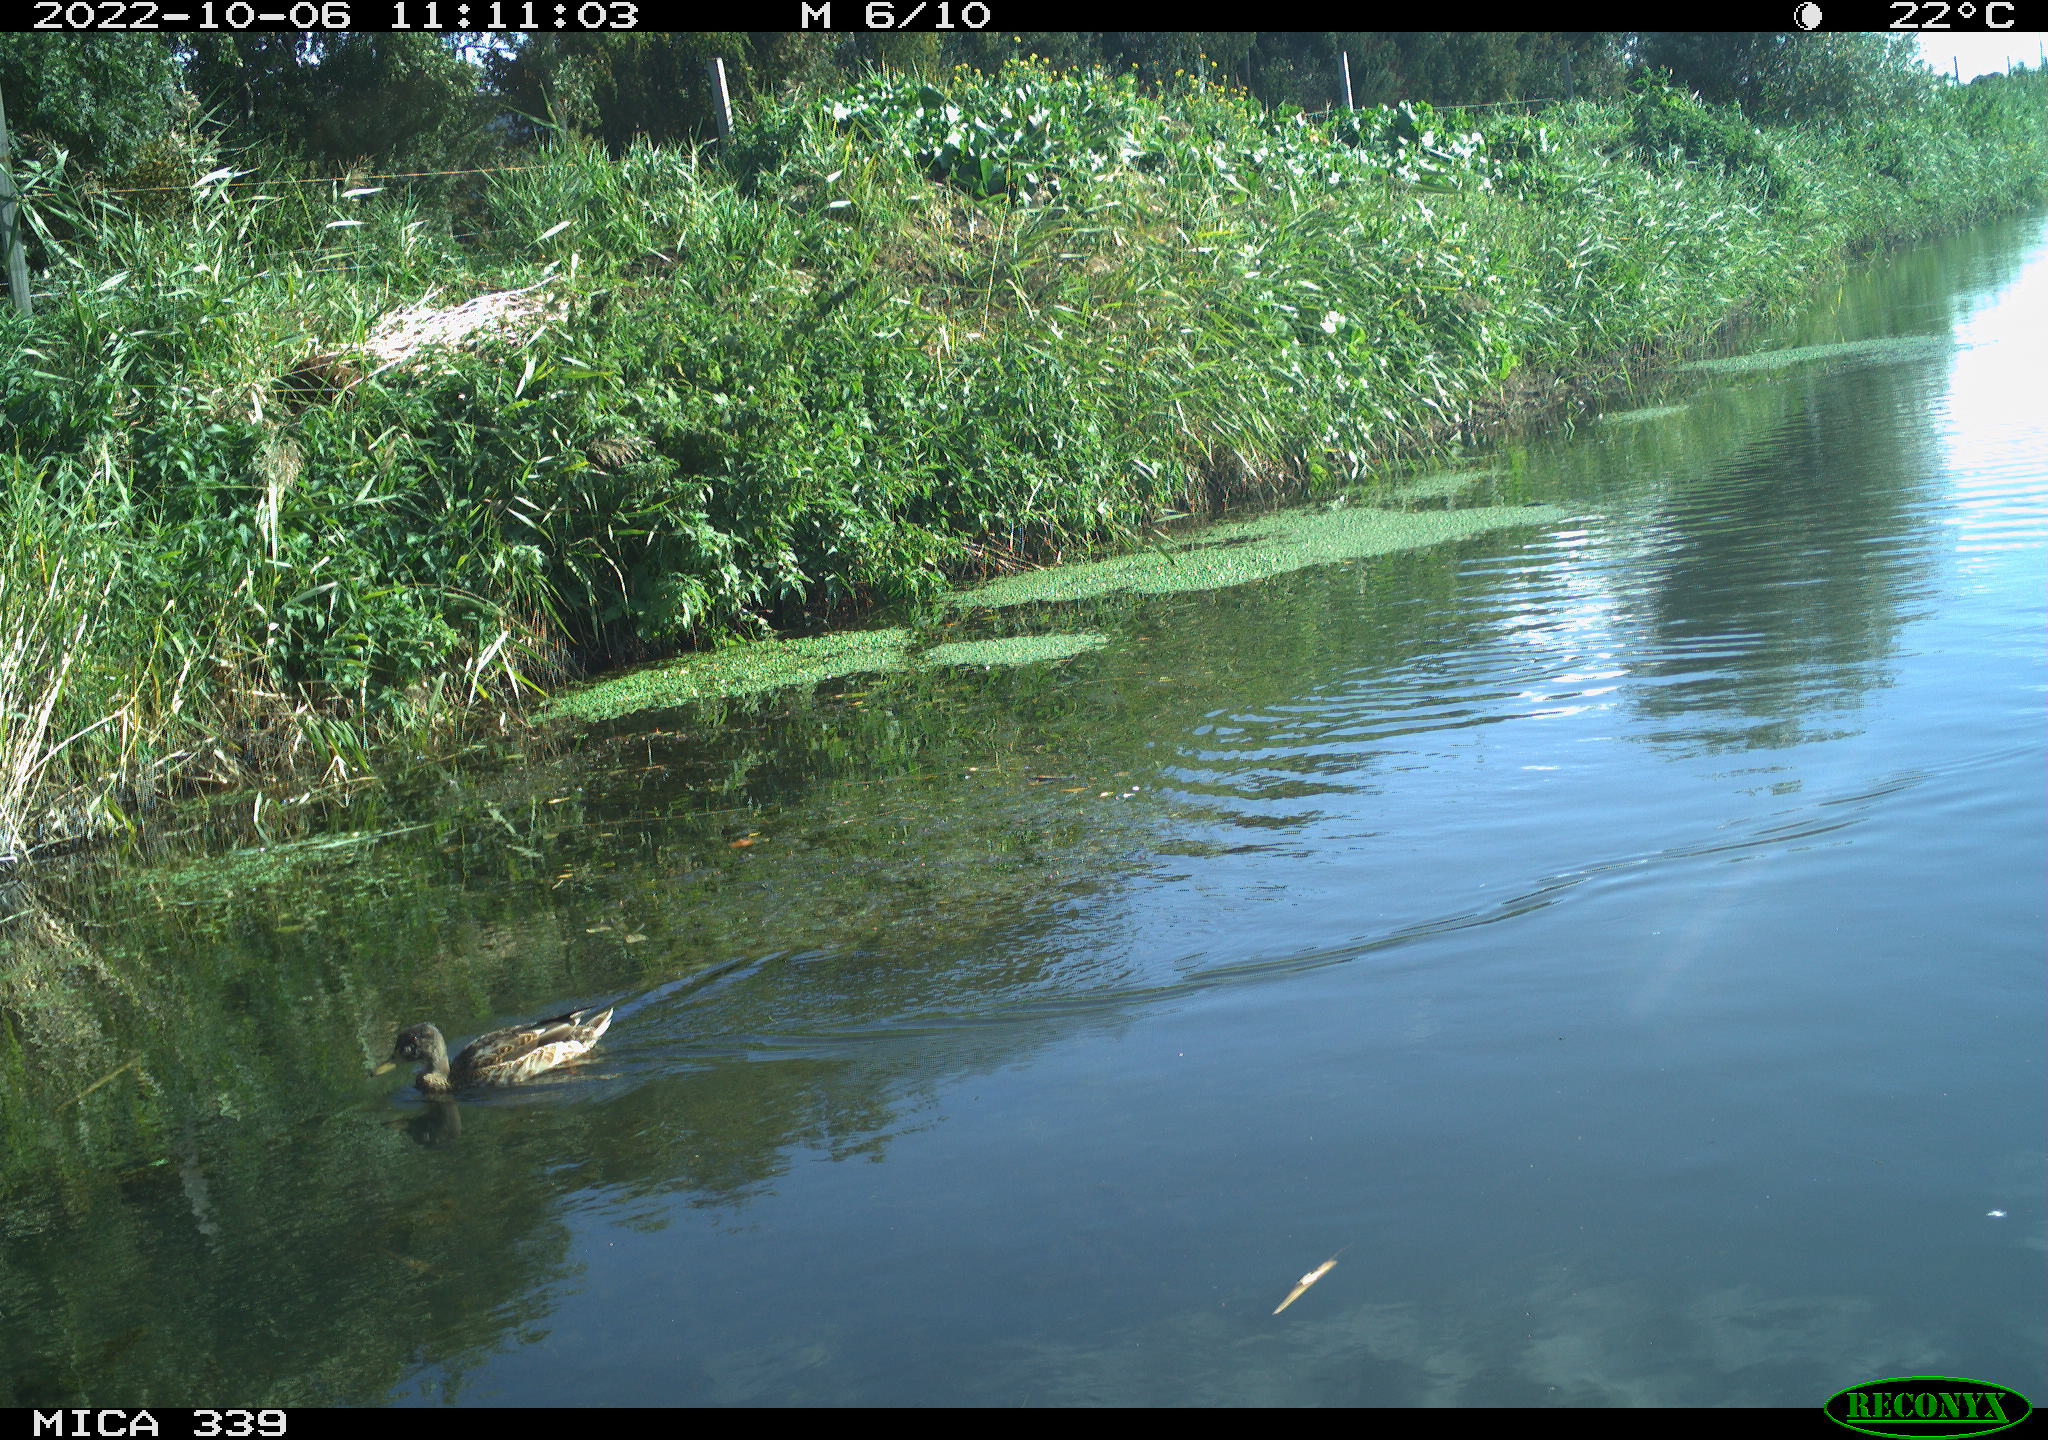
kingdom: Animalia
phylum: Chordata
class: Aves
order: Anseriformes
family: Anatidae
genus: Anas
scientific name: Anas platyrhynchos
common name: Mallard
